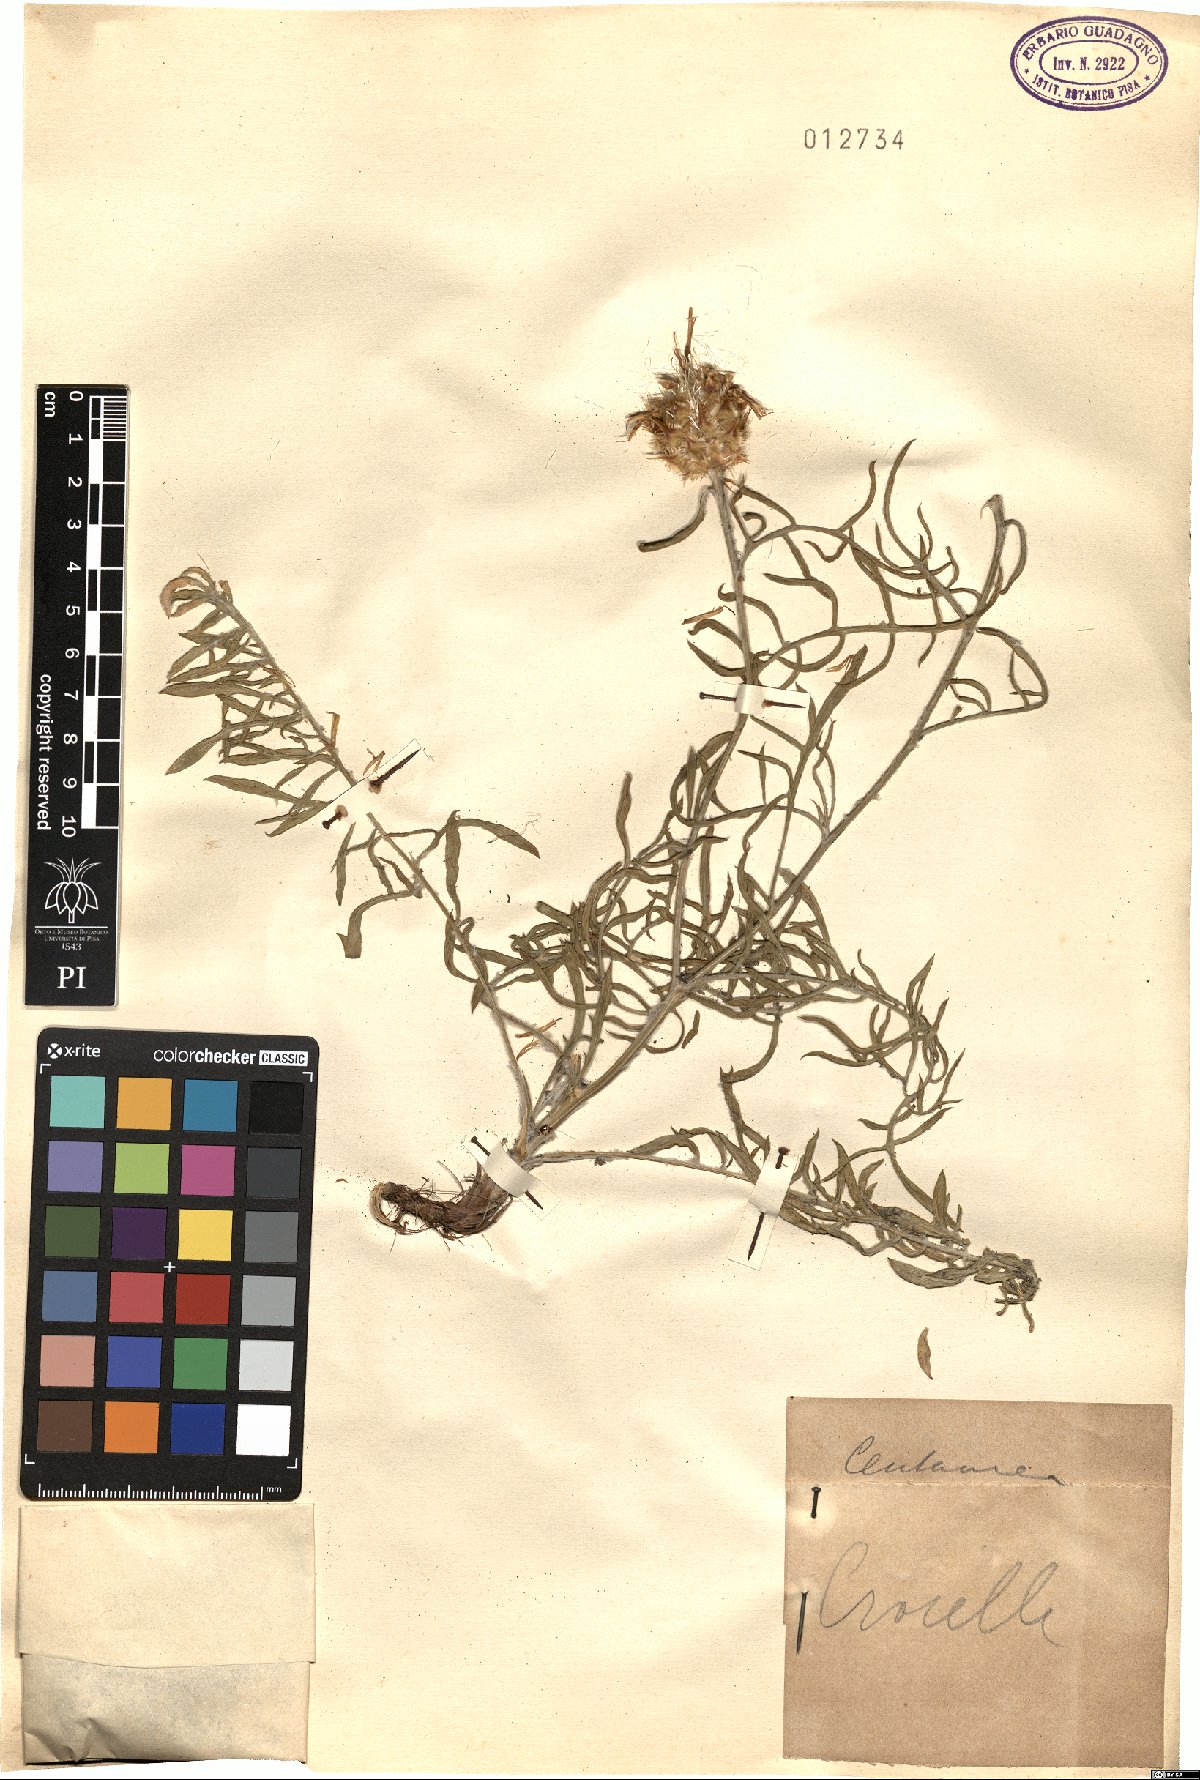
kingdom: Plantae
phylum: Tracheophyta
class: Magnoliopsida
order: Asterales
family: Asteraceae
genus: Centaurea
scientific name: Centaurea
